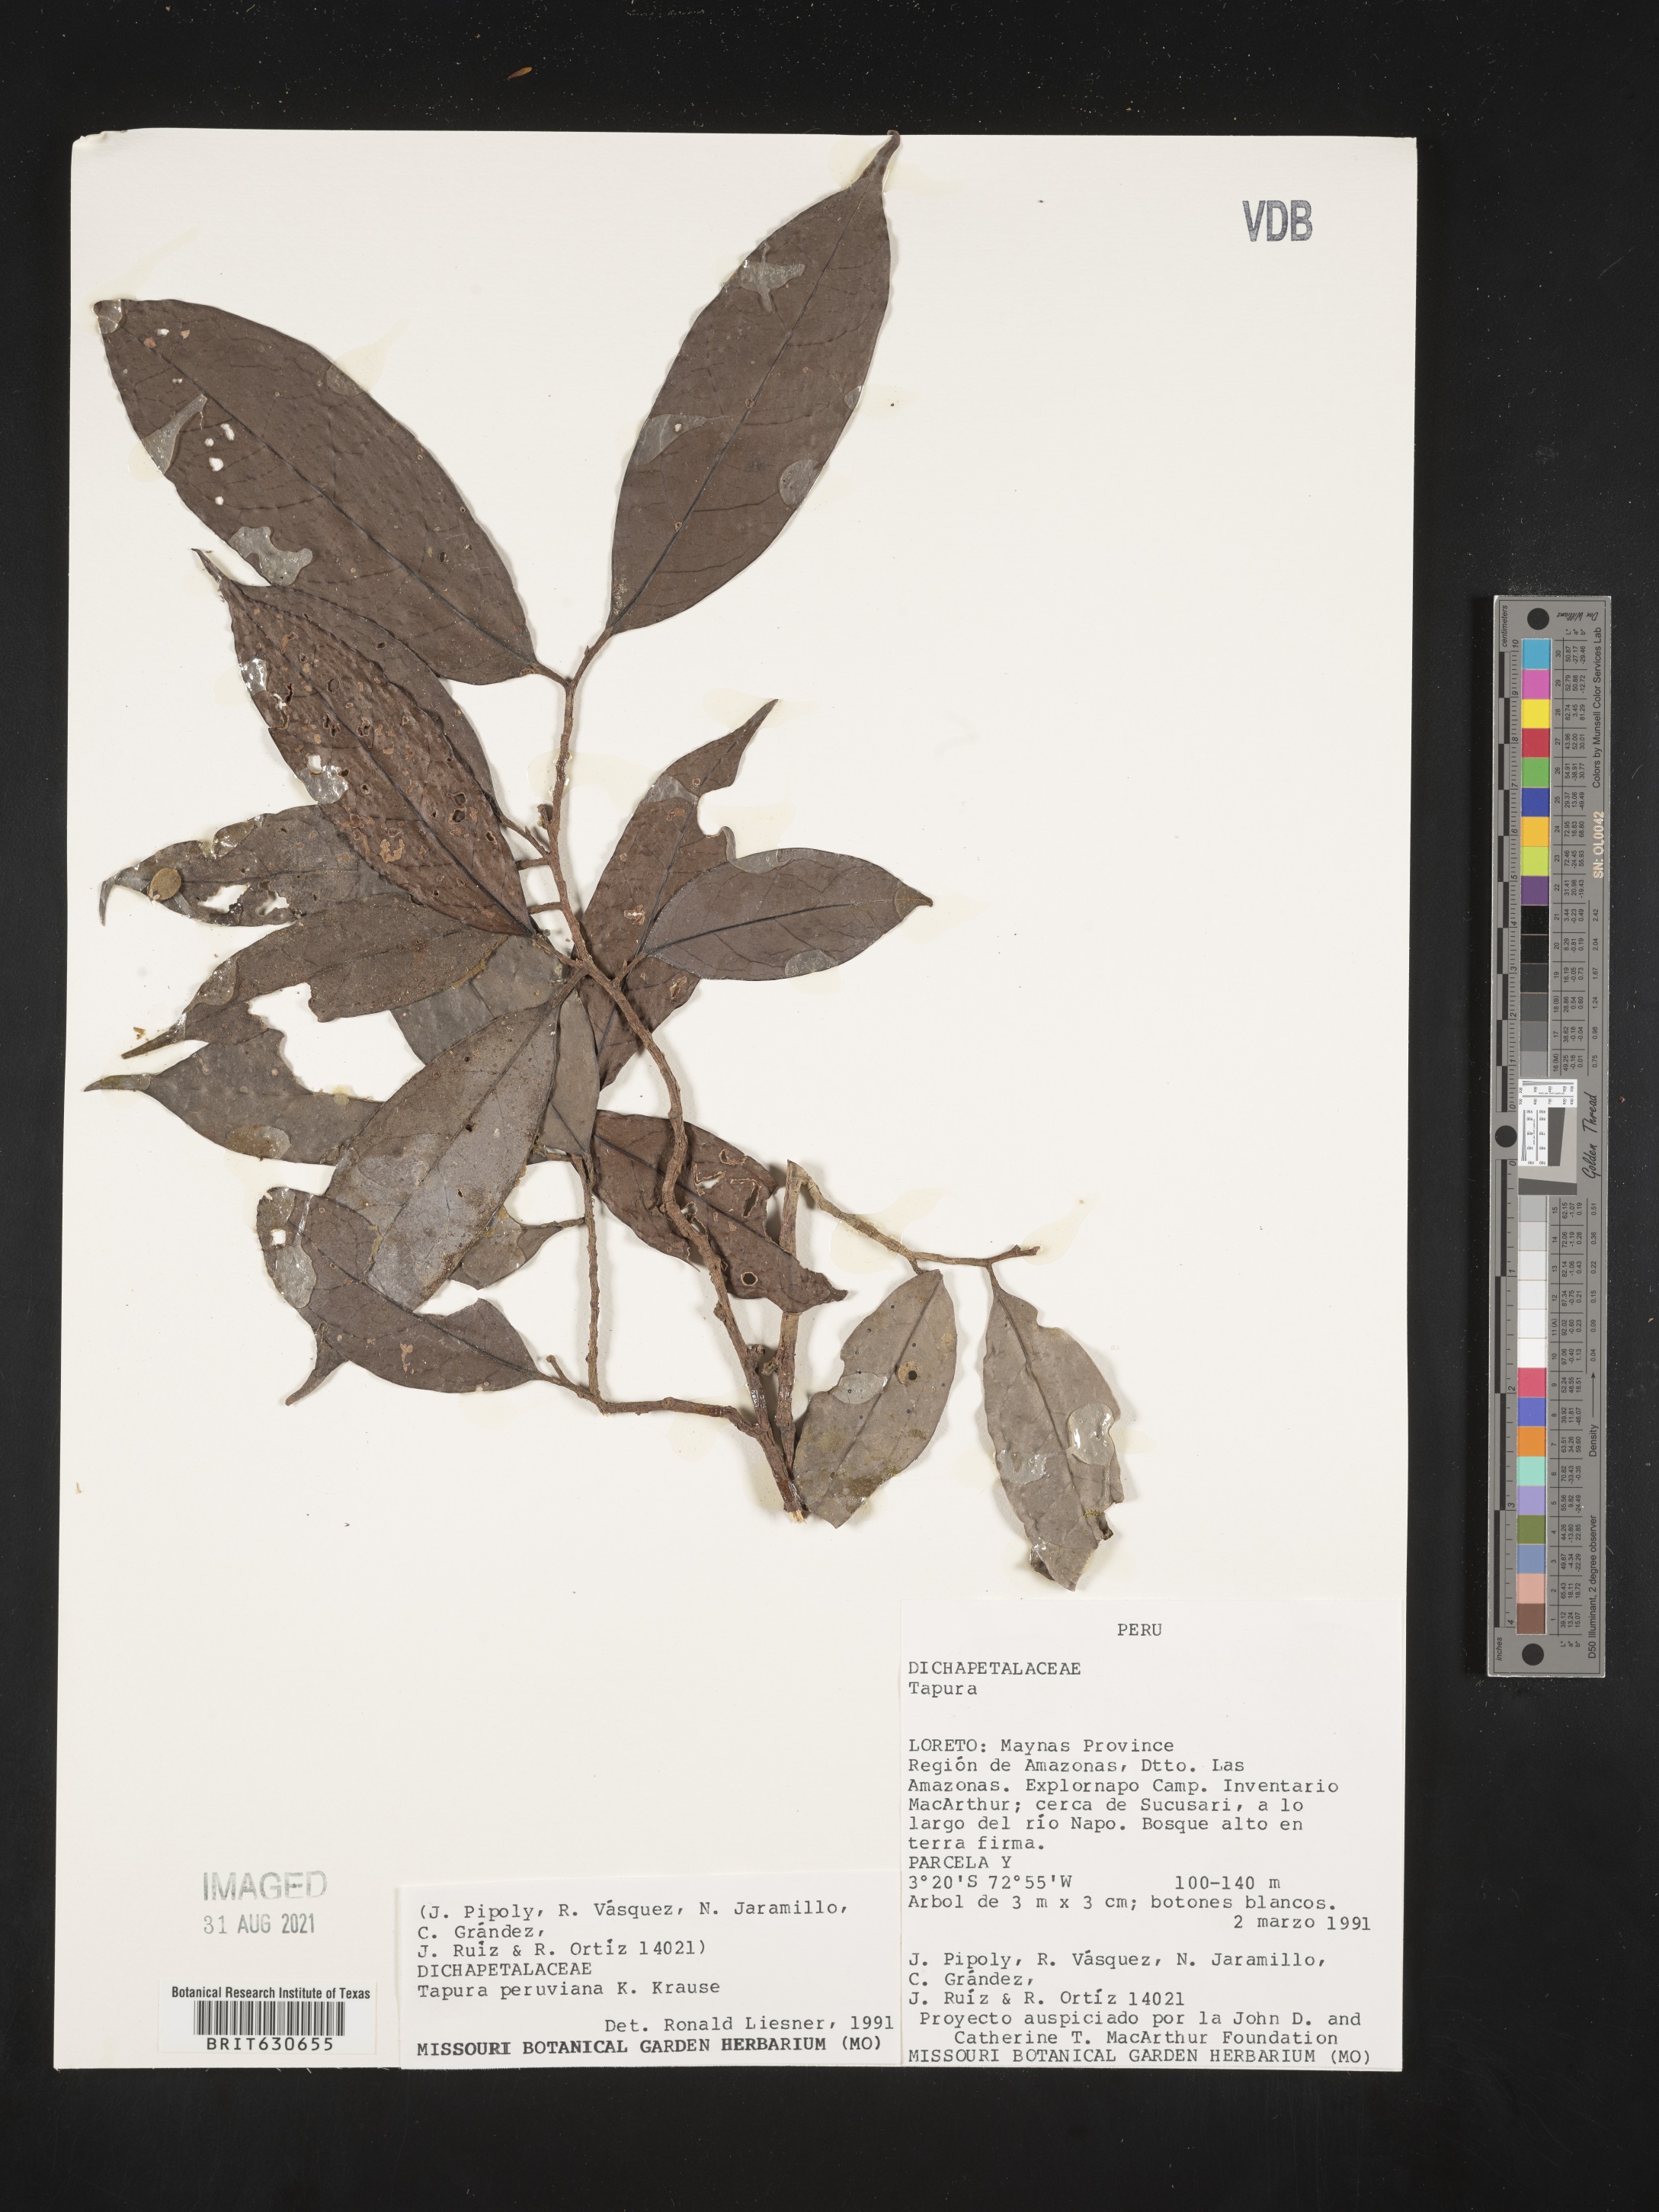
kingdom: Plantae
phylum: Tracheophyta
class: Magnoliopsida
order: Malpighiales
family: Dichapetalaceae
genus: Tapura
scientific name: Tapura
